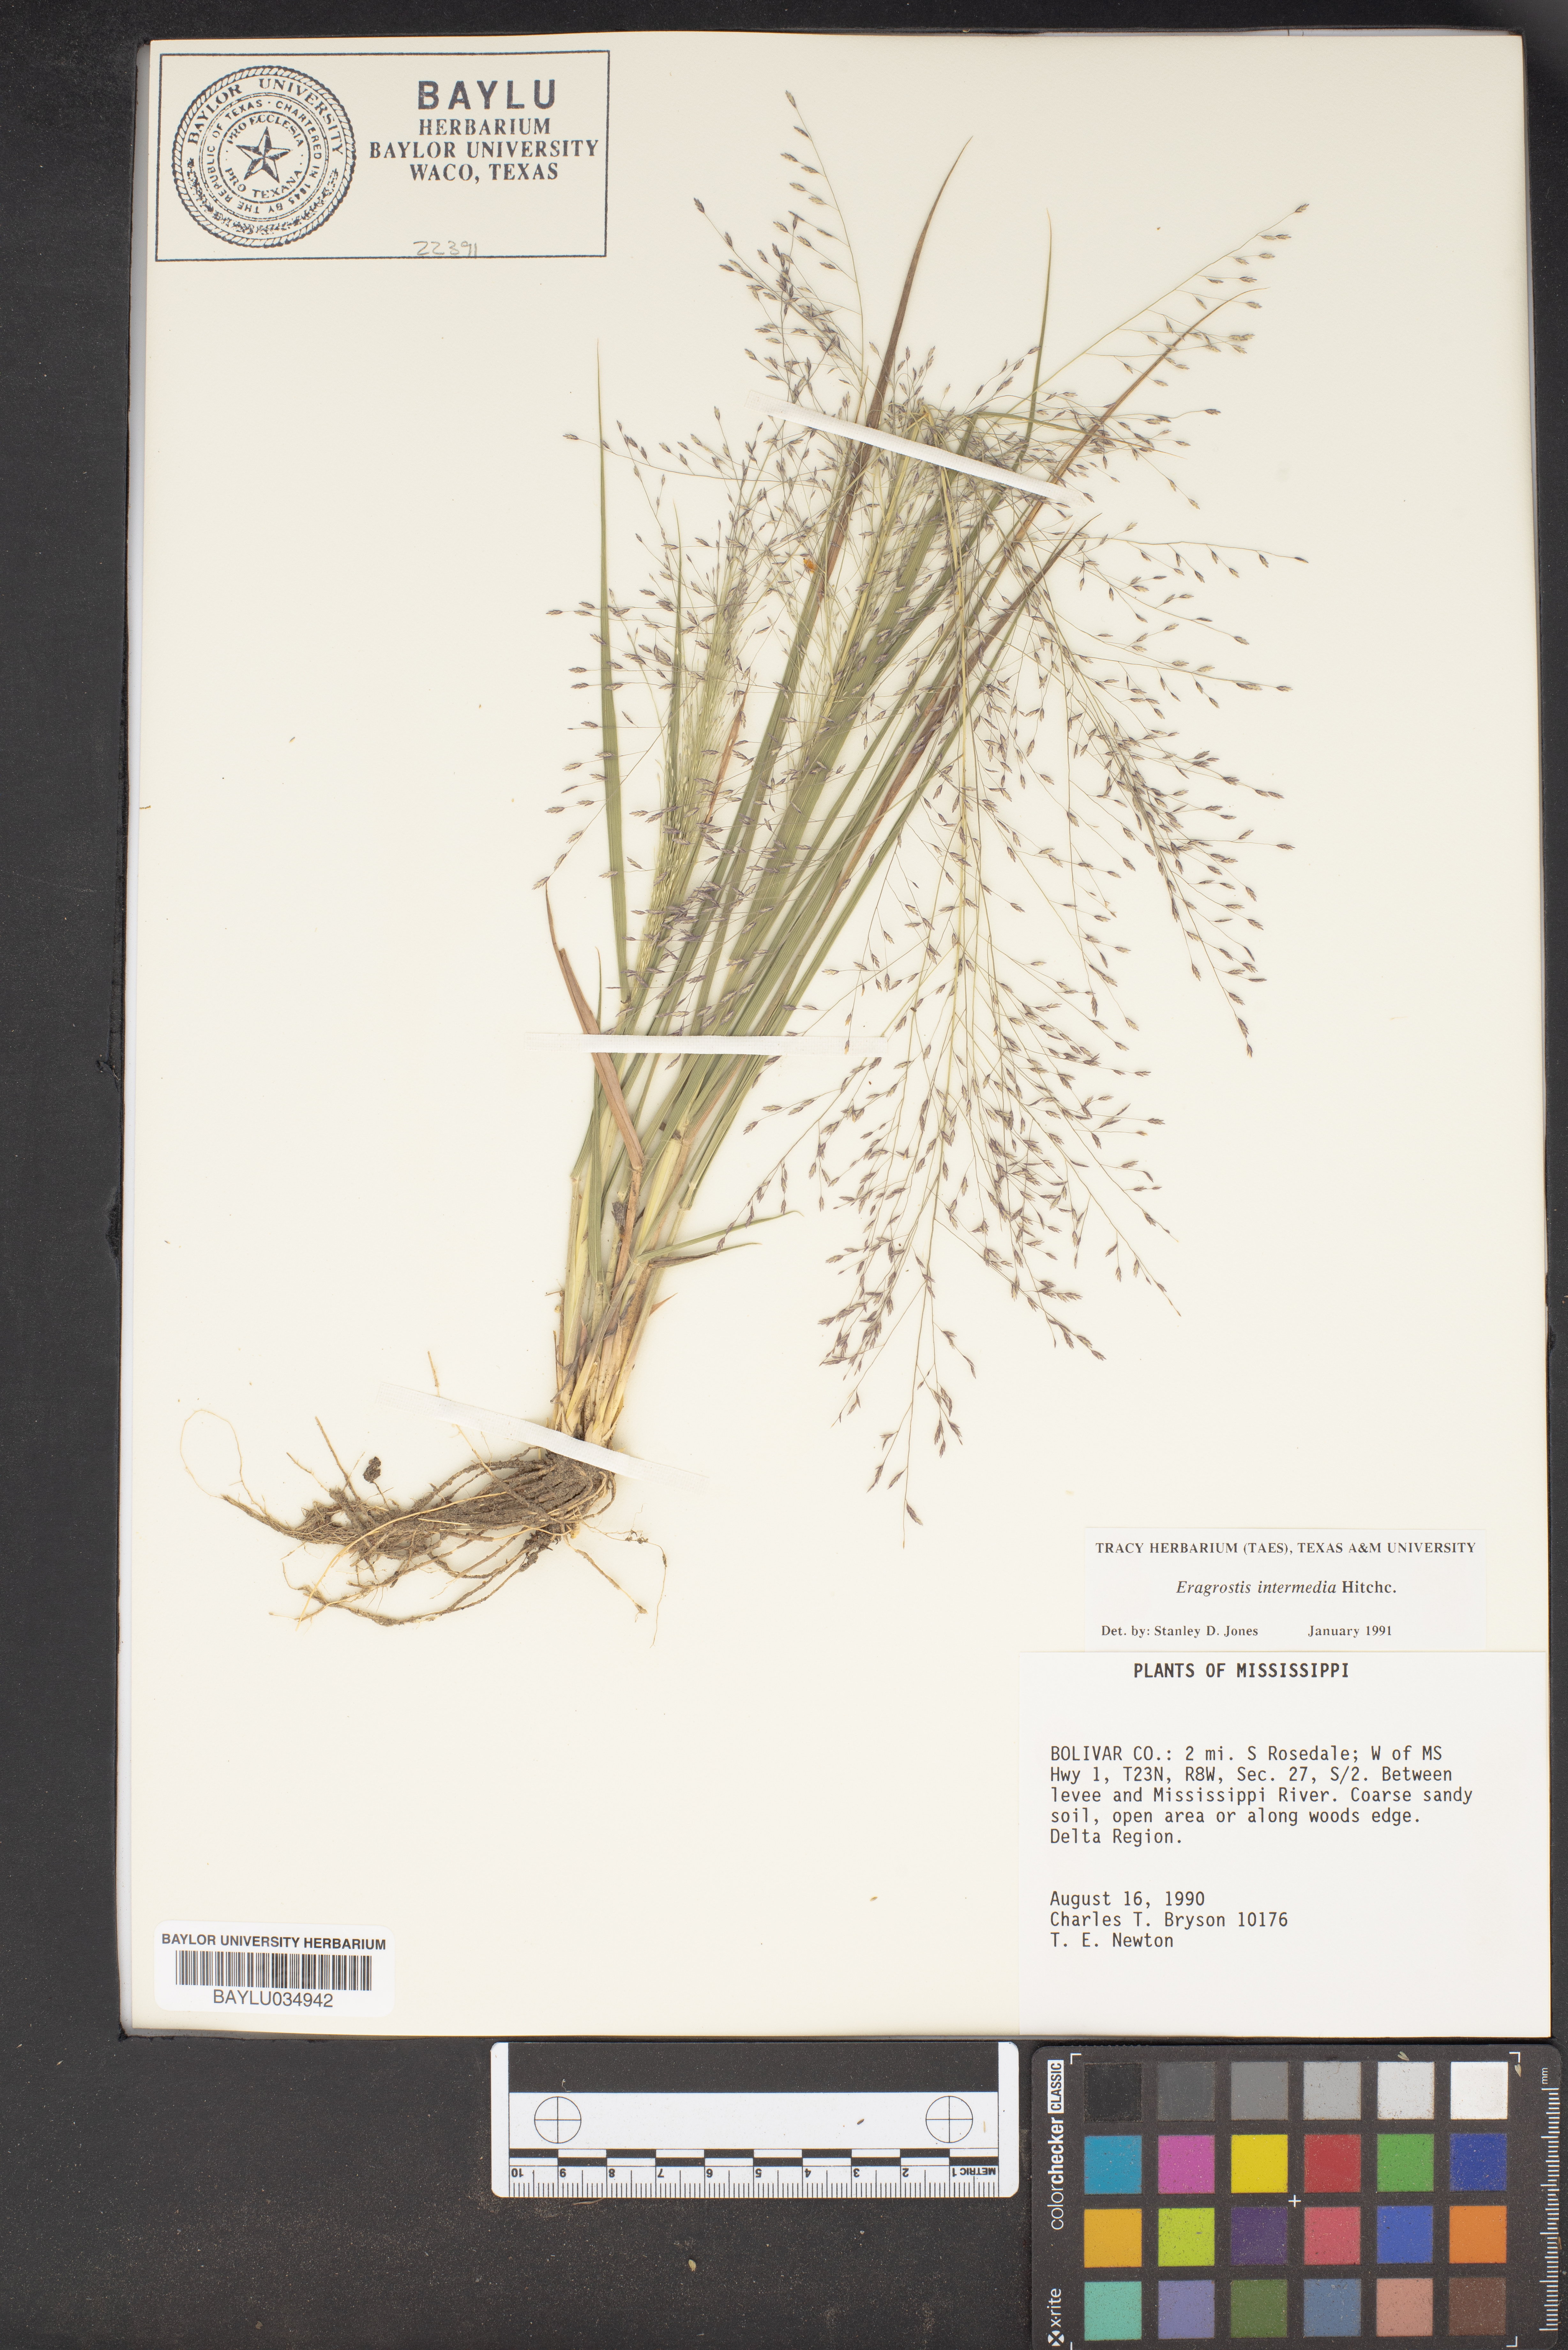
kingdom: Plantae
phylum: Tracheophyta
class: Liliopsida
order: Poales
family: Poaceae
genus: Eragrostis
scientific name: Eragrostis intermedia
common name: Plains love grass
